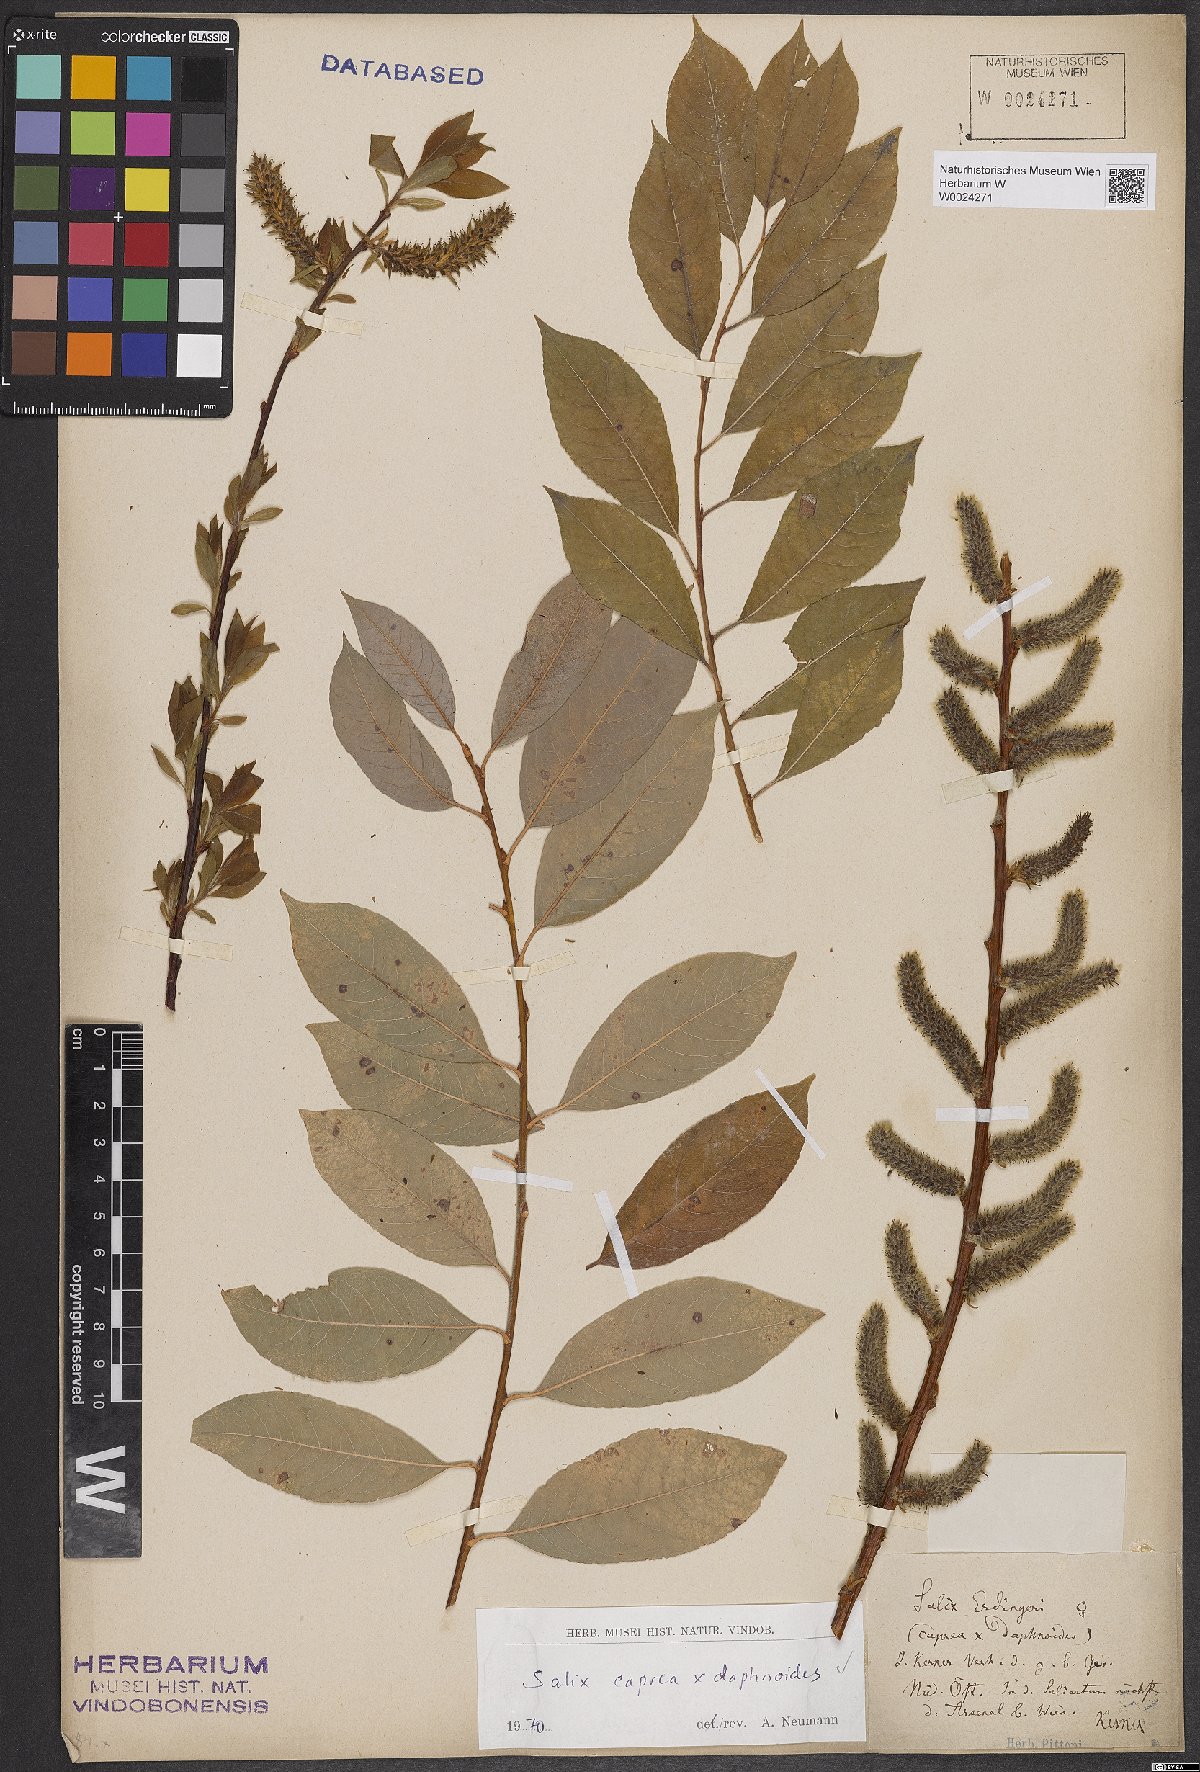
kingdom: Plantae
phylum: Tracheophyta
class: Magnoliopsida
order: Malpighiales
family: Salicaceae
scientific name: Salicaceae
